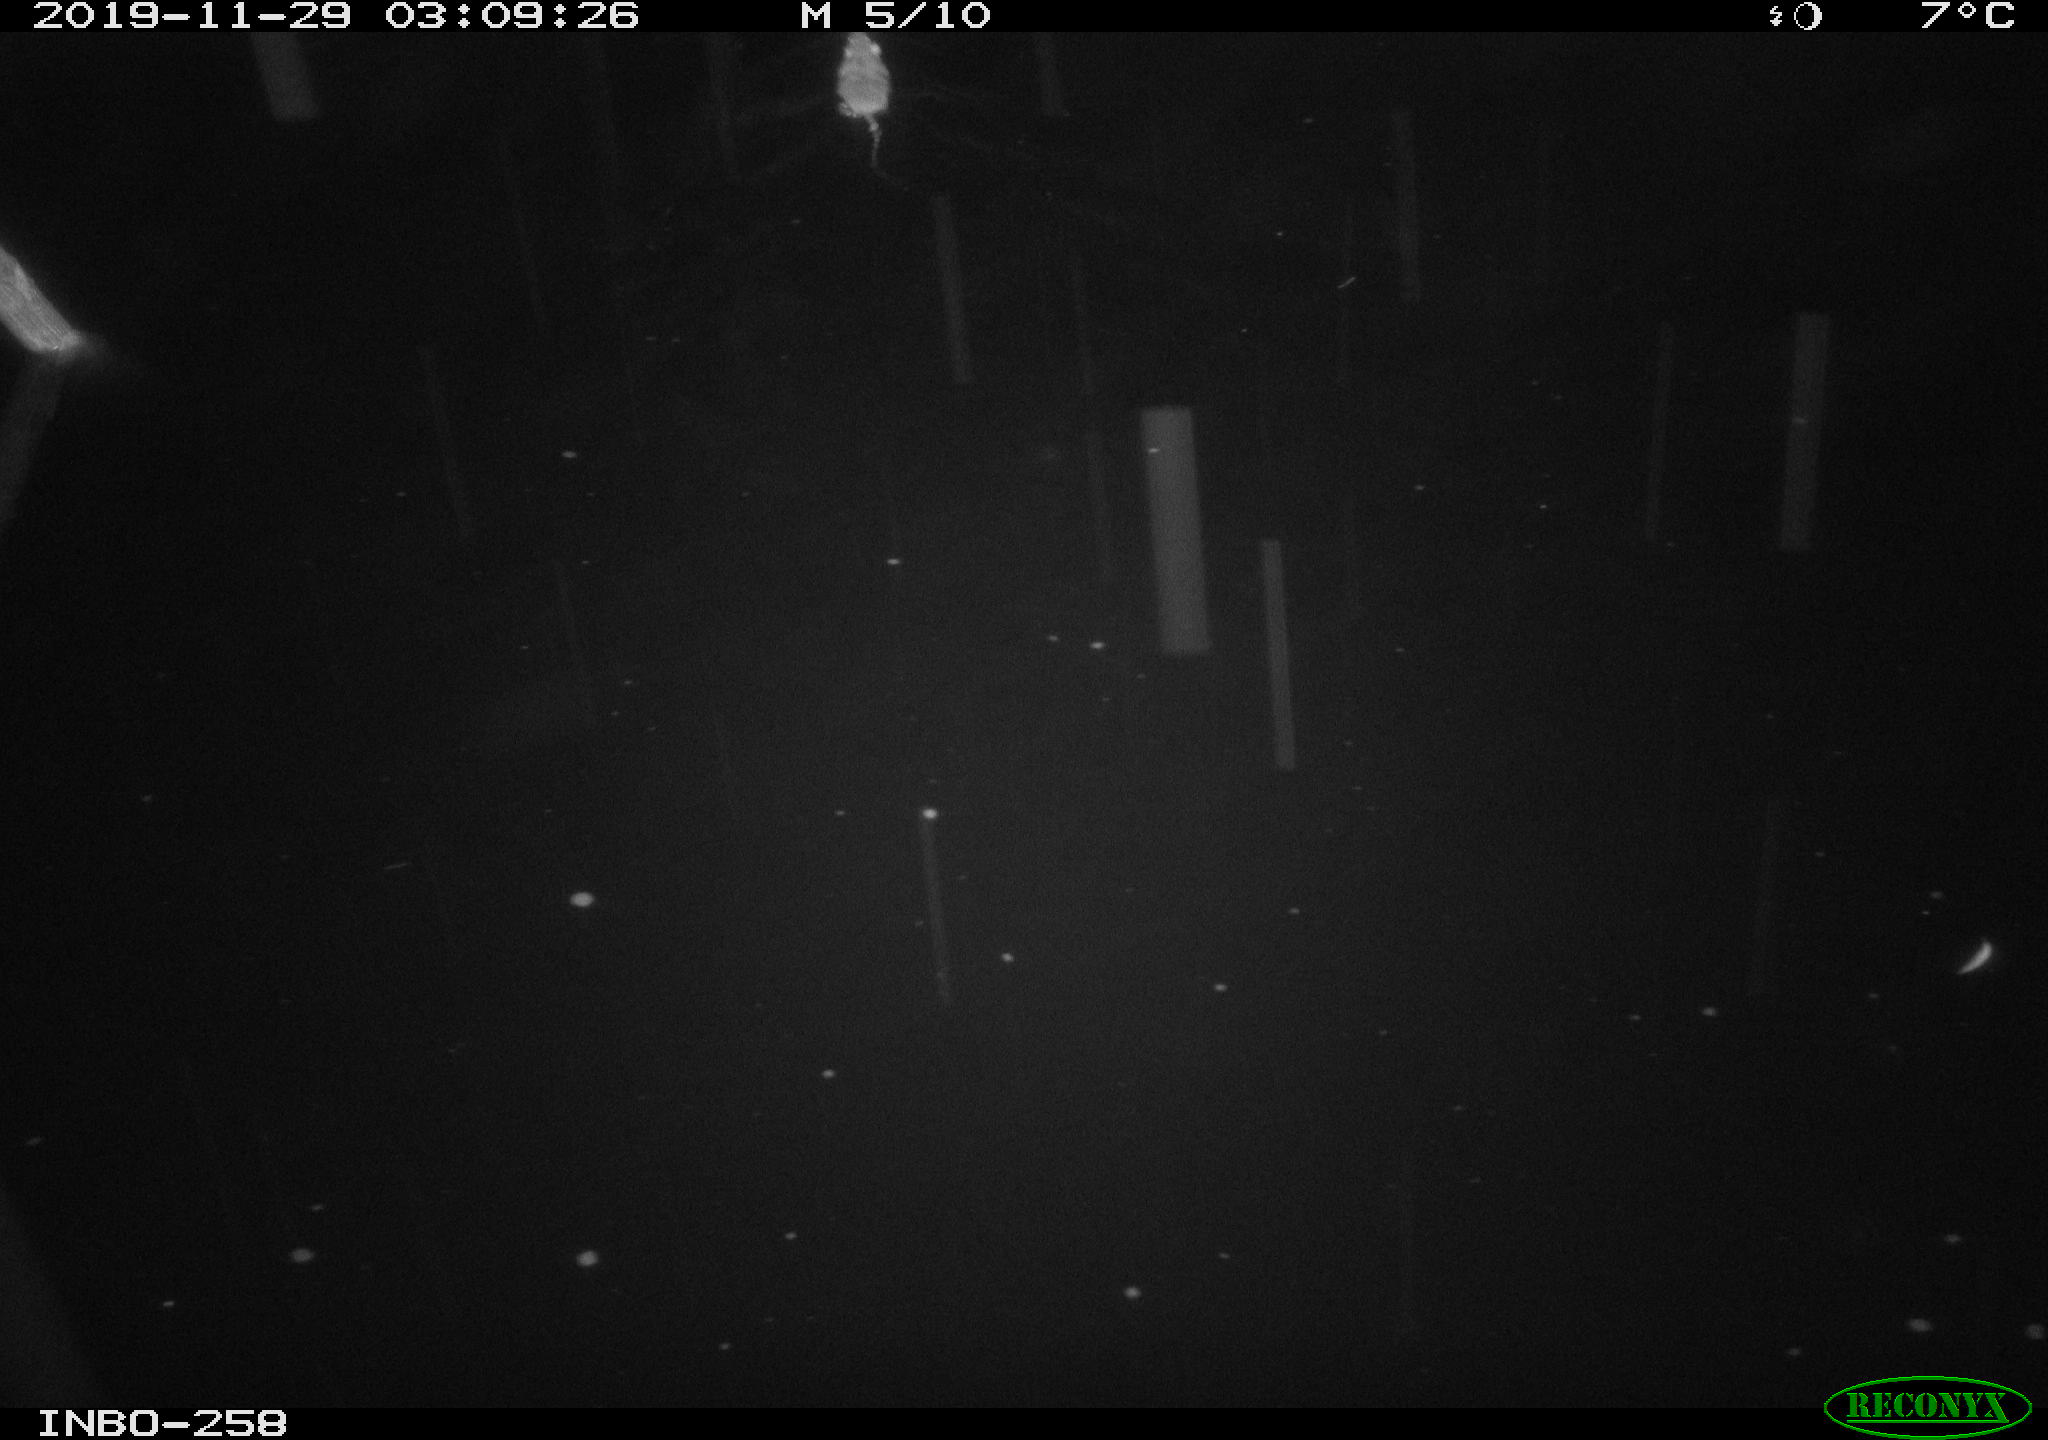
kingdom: Animalia
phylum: Chordata
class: Mammalia
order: Rodentia
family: Muridae
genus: Rattus
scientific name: Rattus norvegicus
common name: Brown rat
